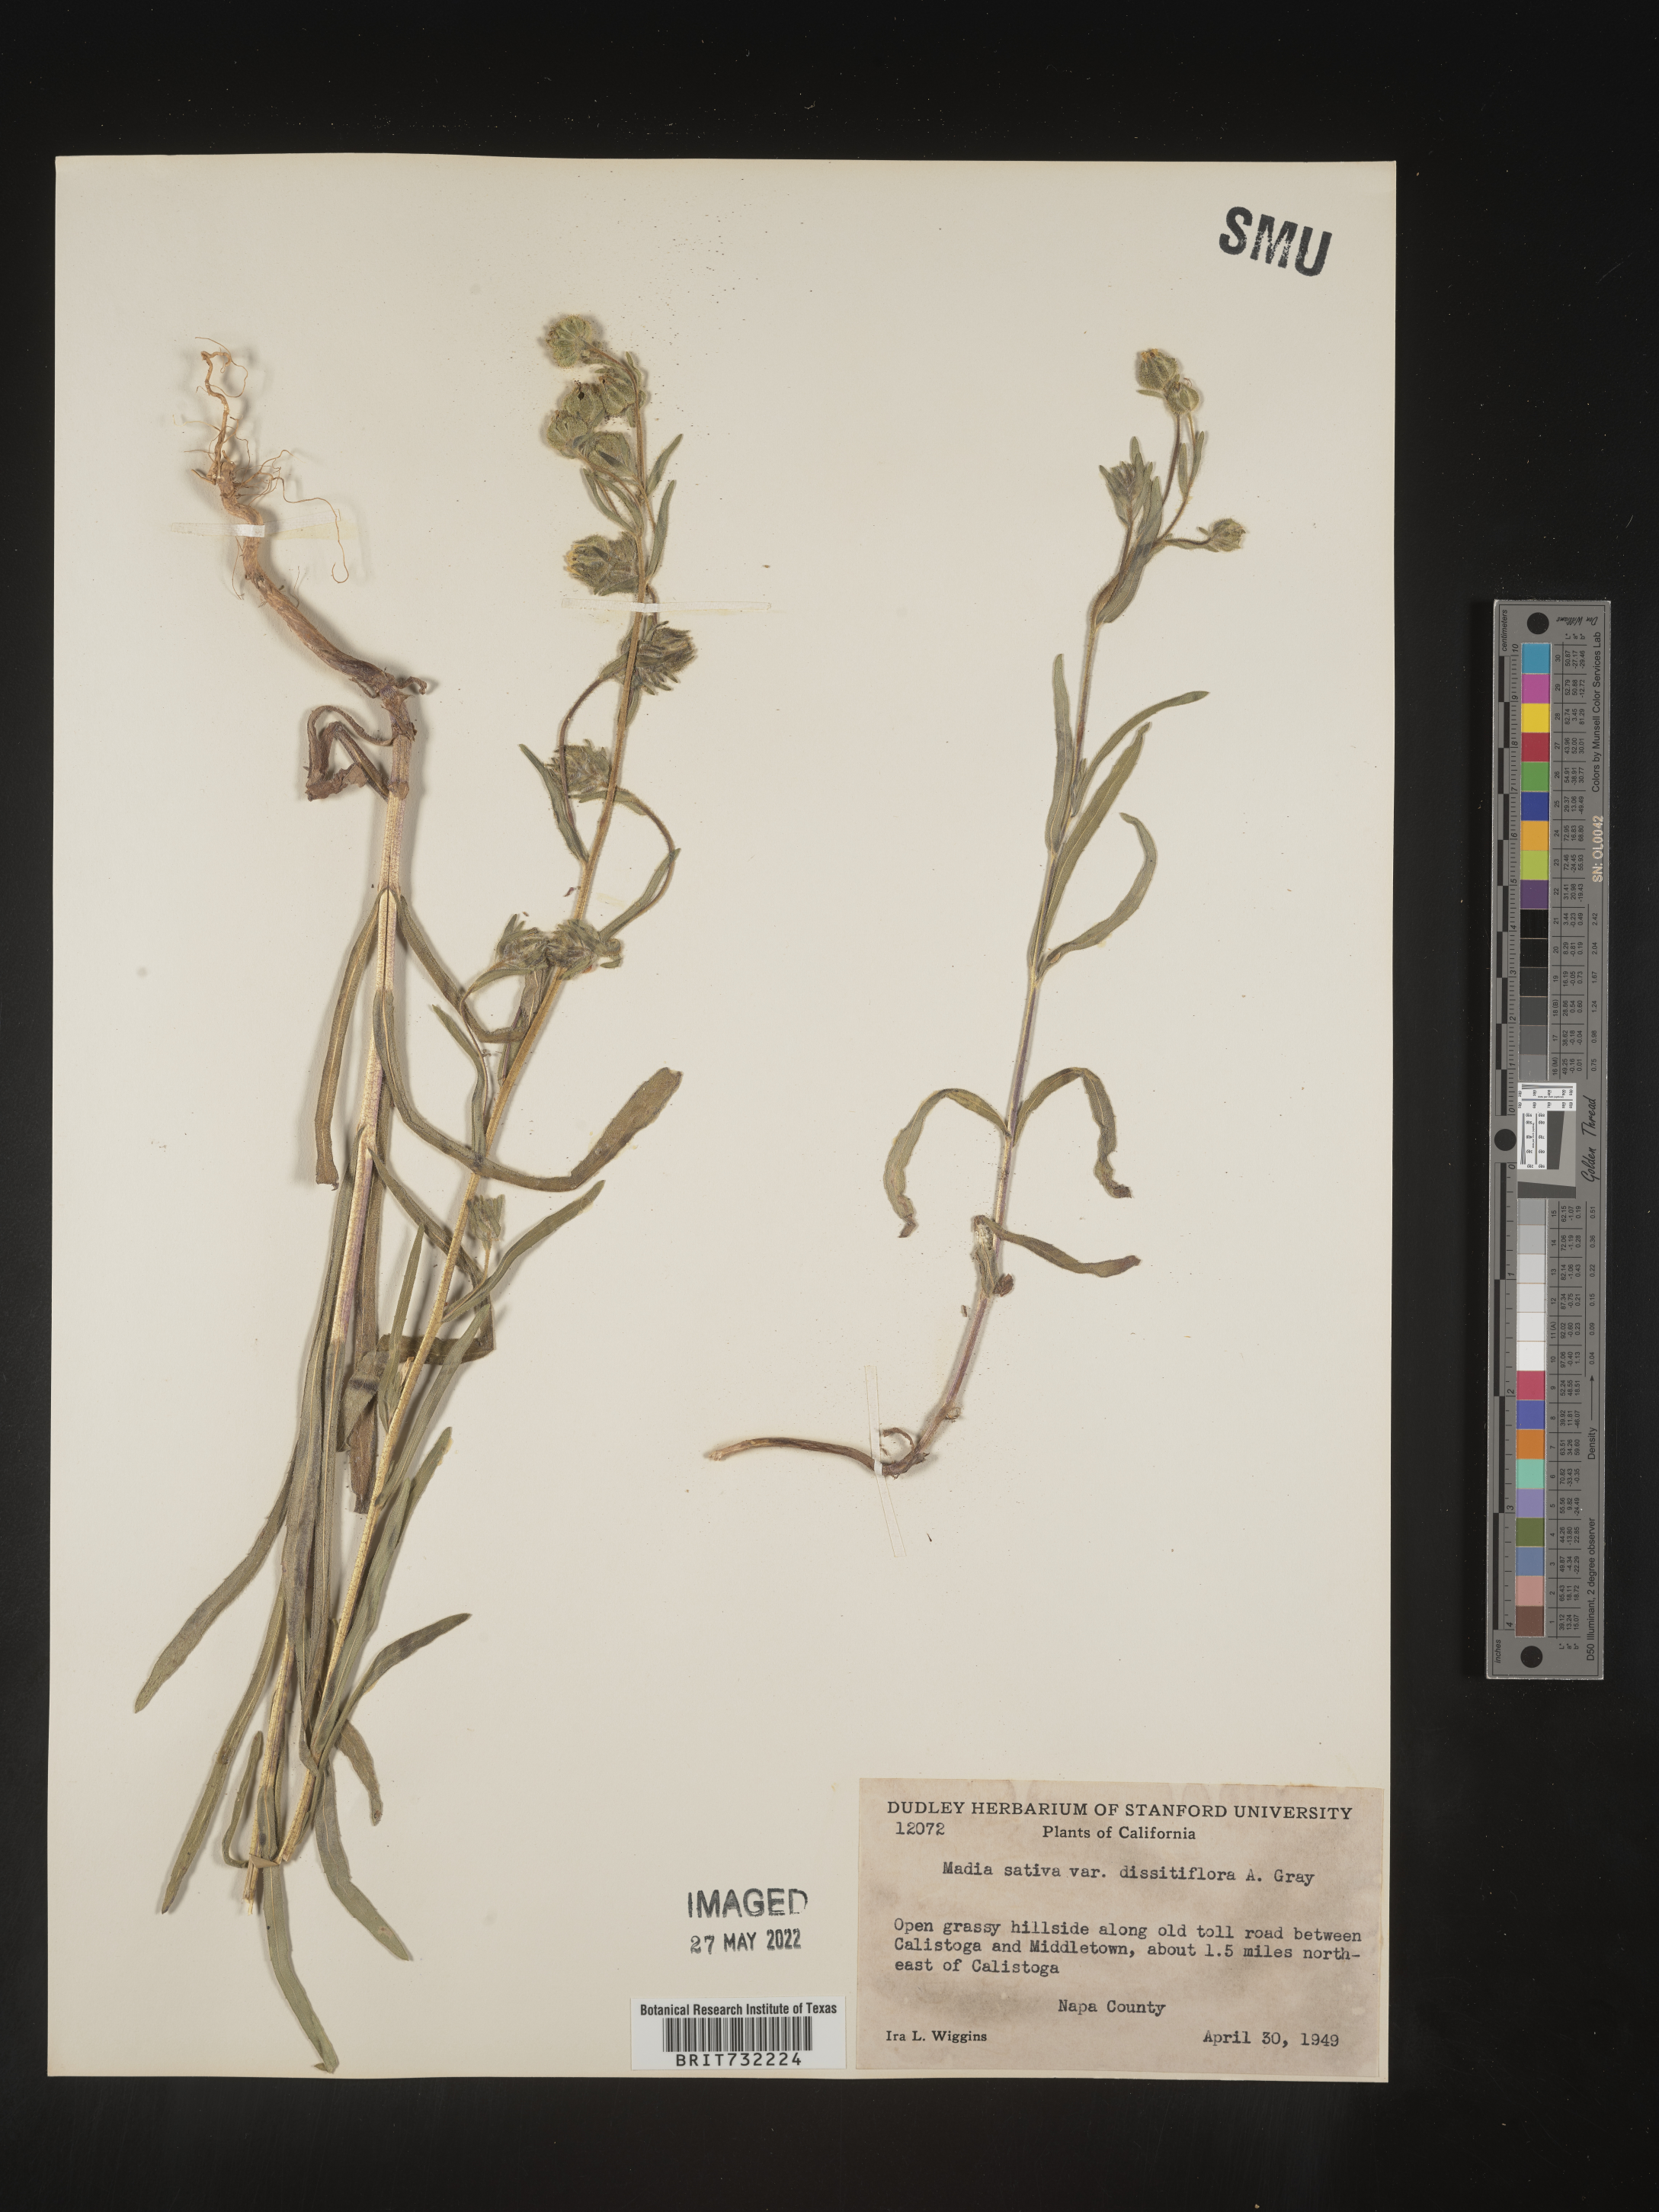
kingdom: Plantae
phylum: Tracheophyta
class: Magnoliopsida
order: Asterales
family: Asteraceae
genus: Madia
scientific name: Madia
